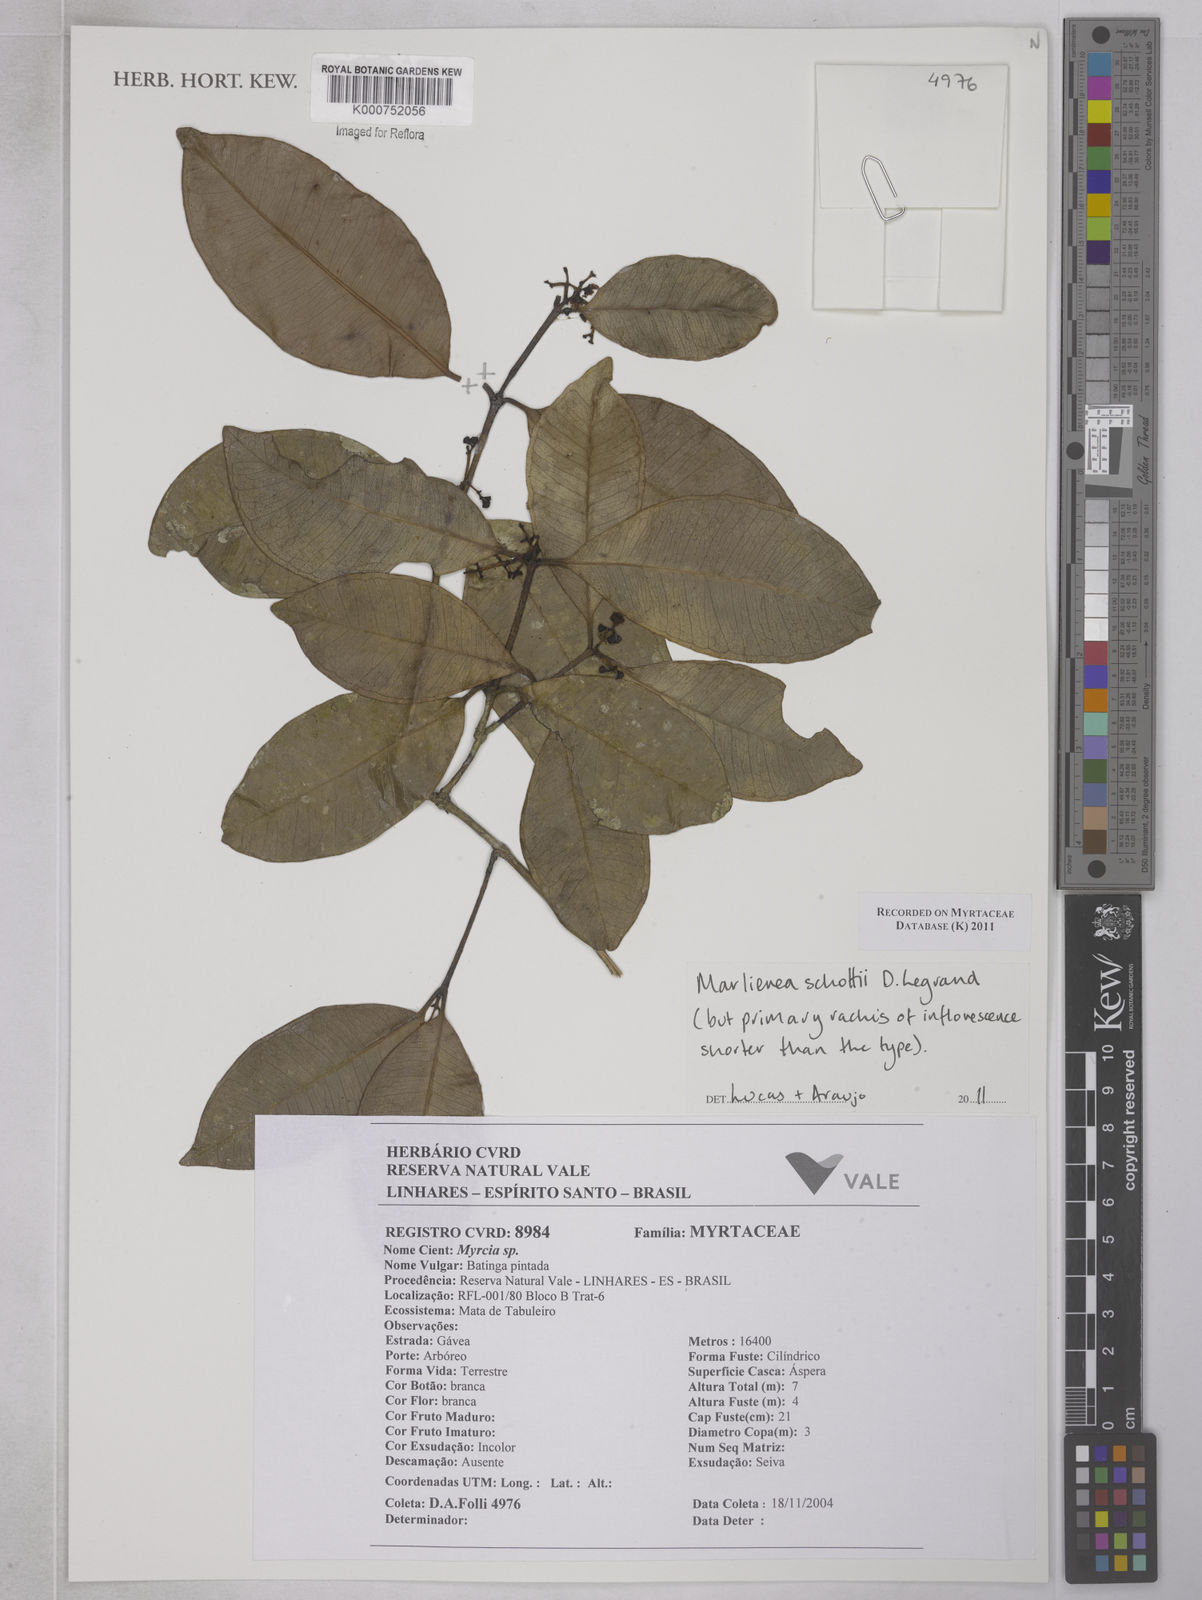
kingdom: Plantae
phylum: Tracheophyta
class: Magnoliopsida
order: Myrtales
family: Myrtaceae
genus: Myrcia
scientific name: Myrcia schottii
